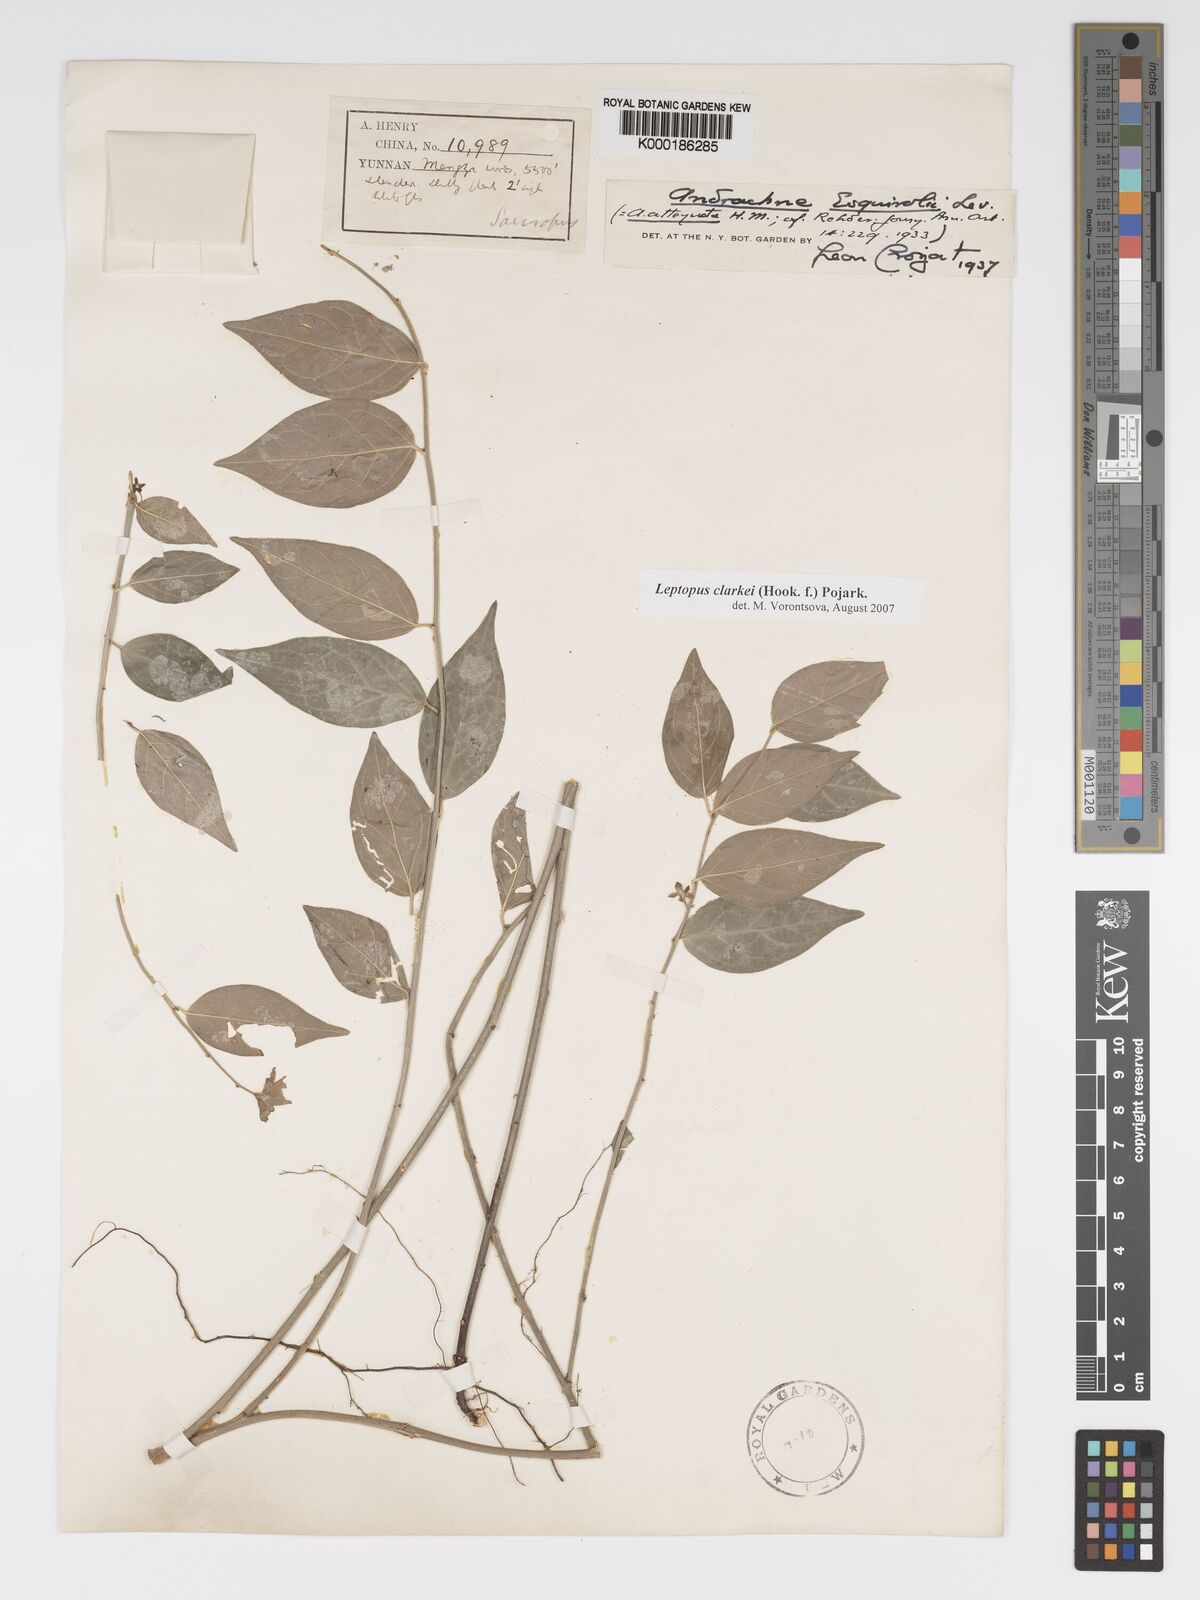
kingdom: Plantae
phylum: Tracheophyta
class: Magnoliopsida
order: Malpighiales
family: Phyllanthaceae
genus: Leptopus
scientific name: Leptopus clarkei
